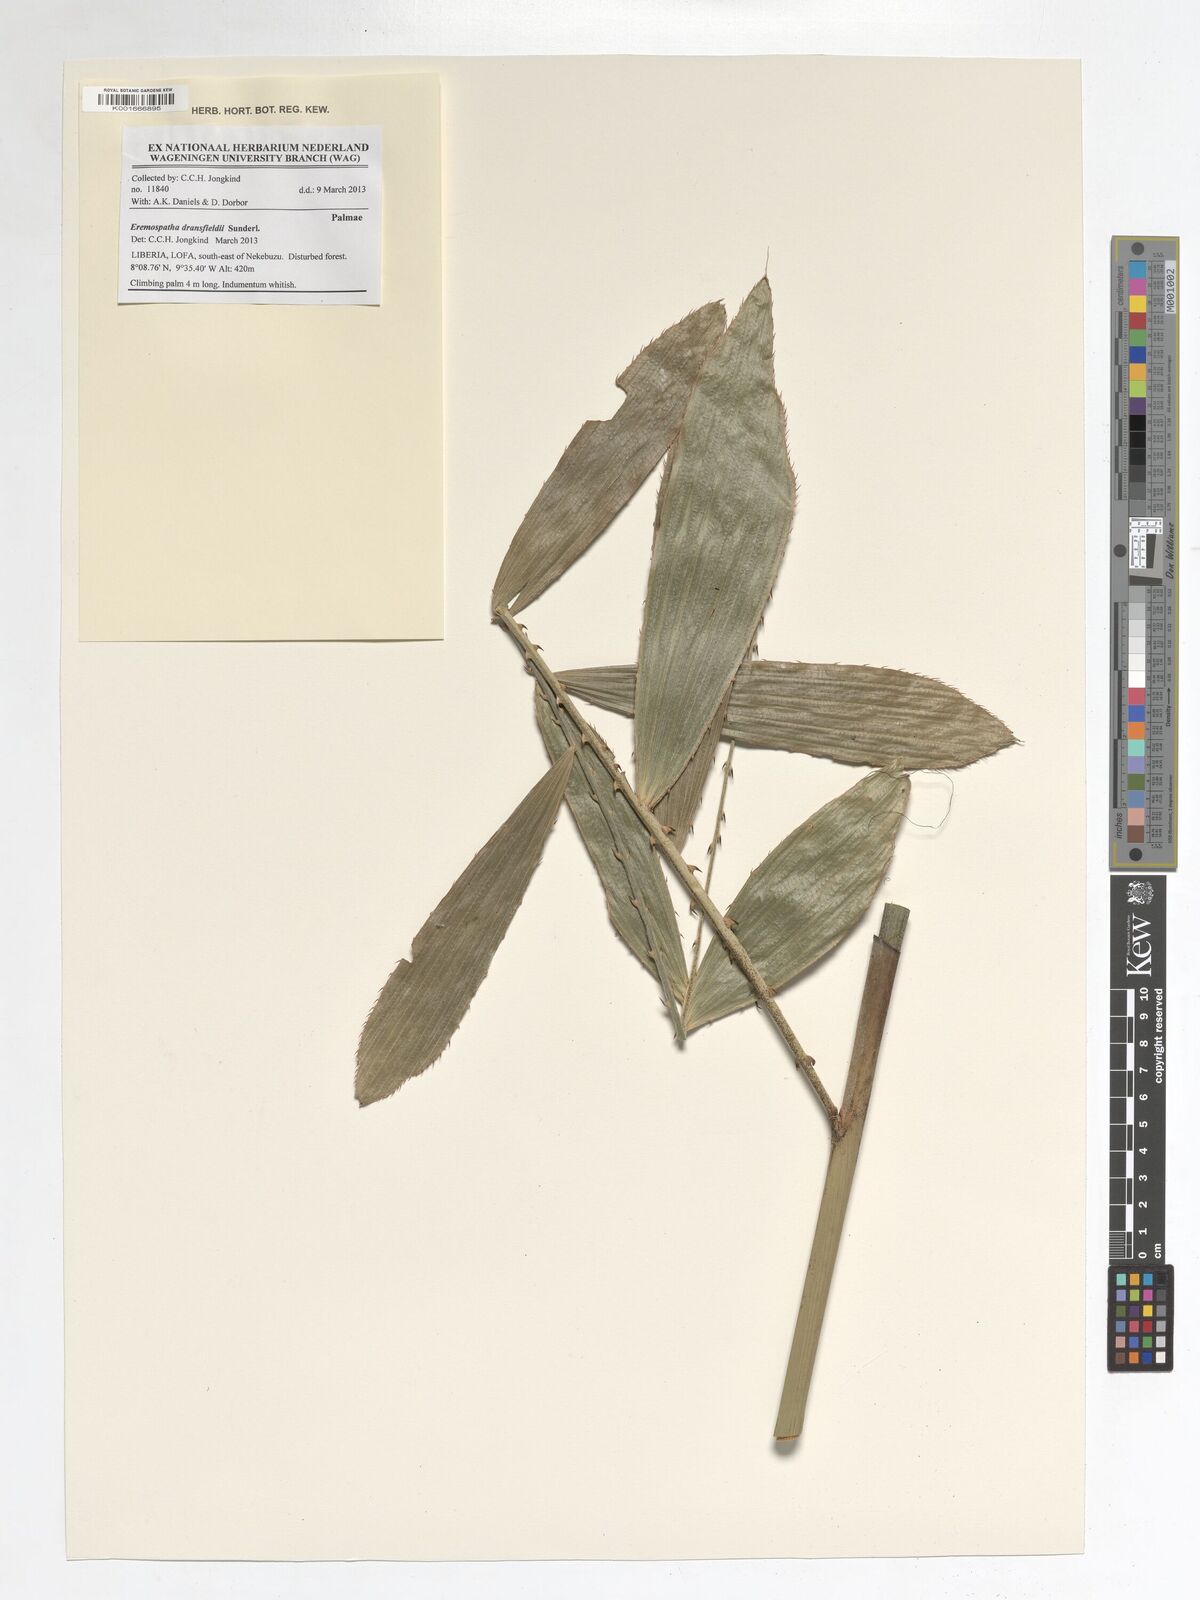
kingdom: Plantae
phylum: Tracheophyta
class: Liliopsida
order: Arecales
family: Arecaceae
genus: Eremospatha
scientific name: Eremospatha dransfieldii
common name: Rattan
